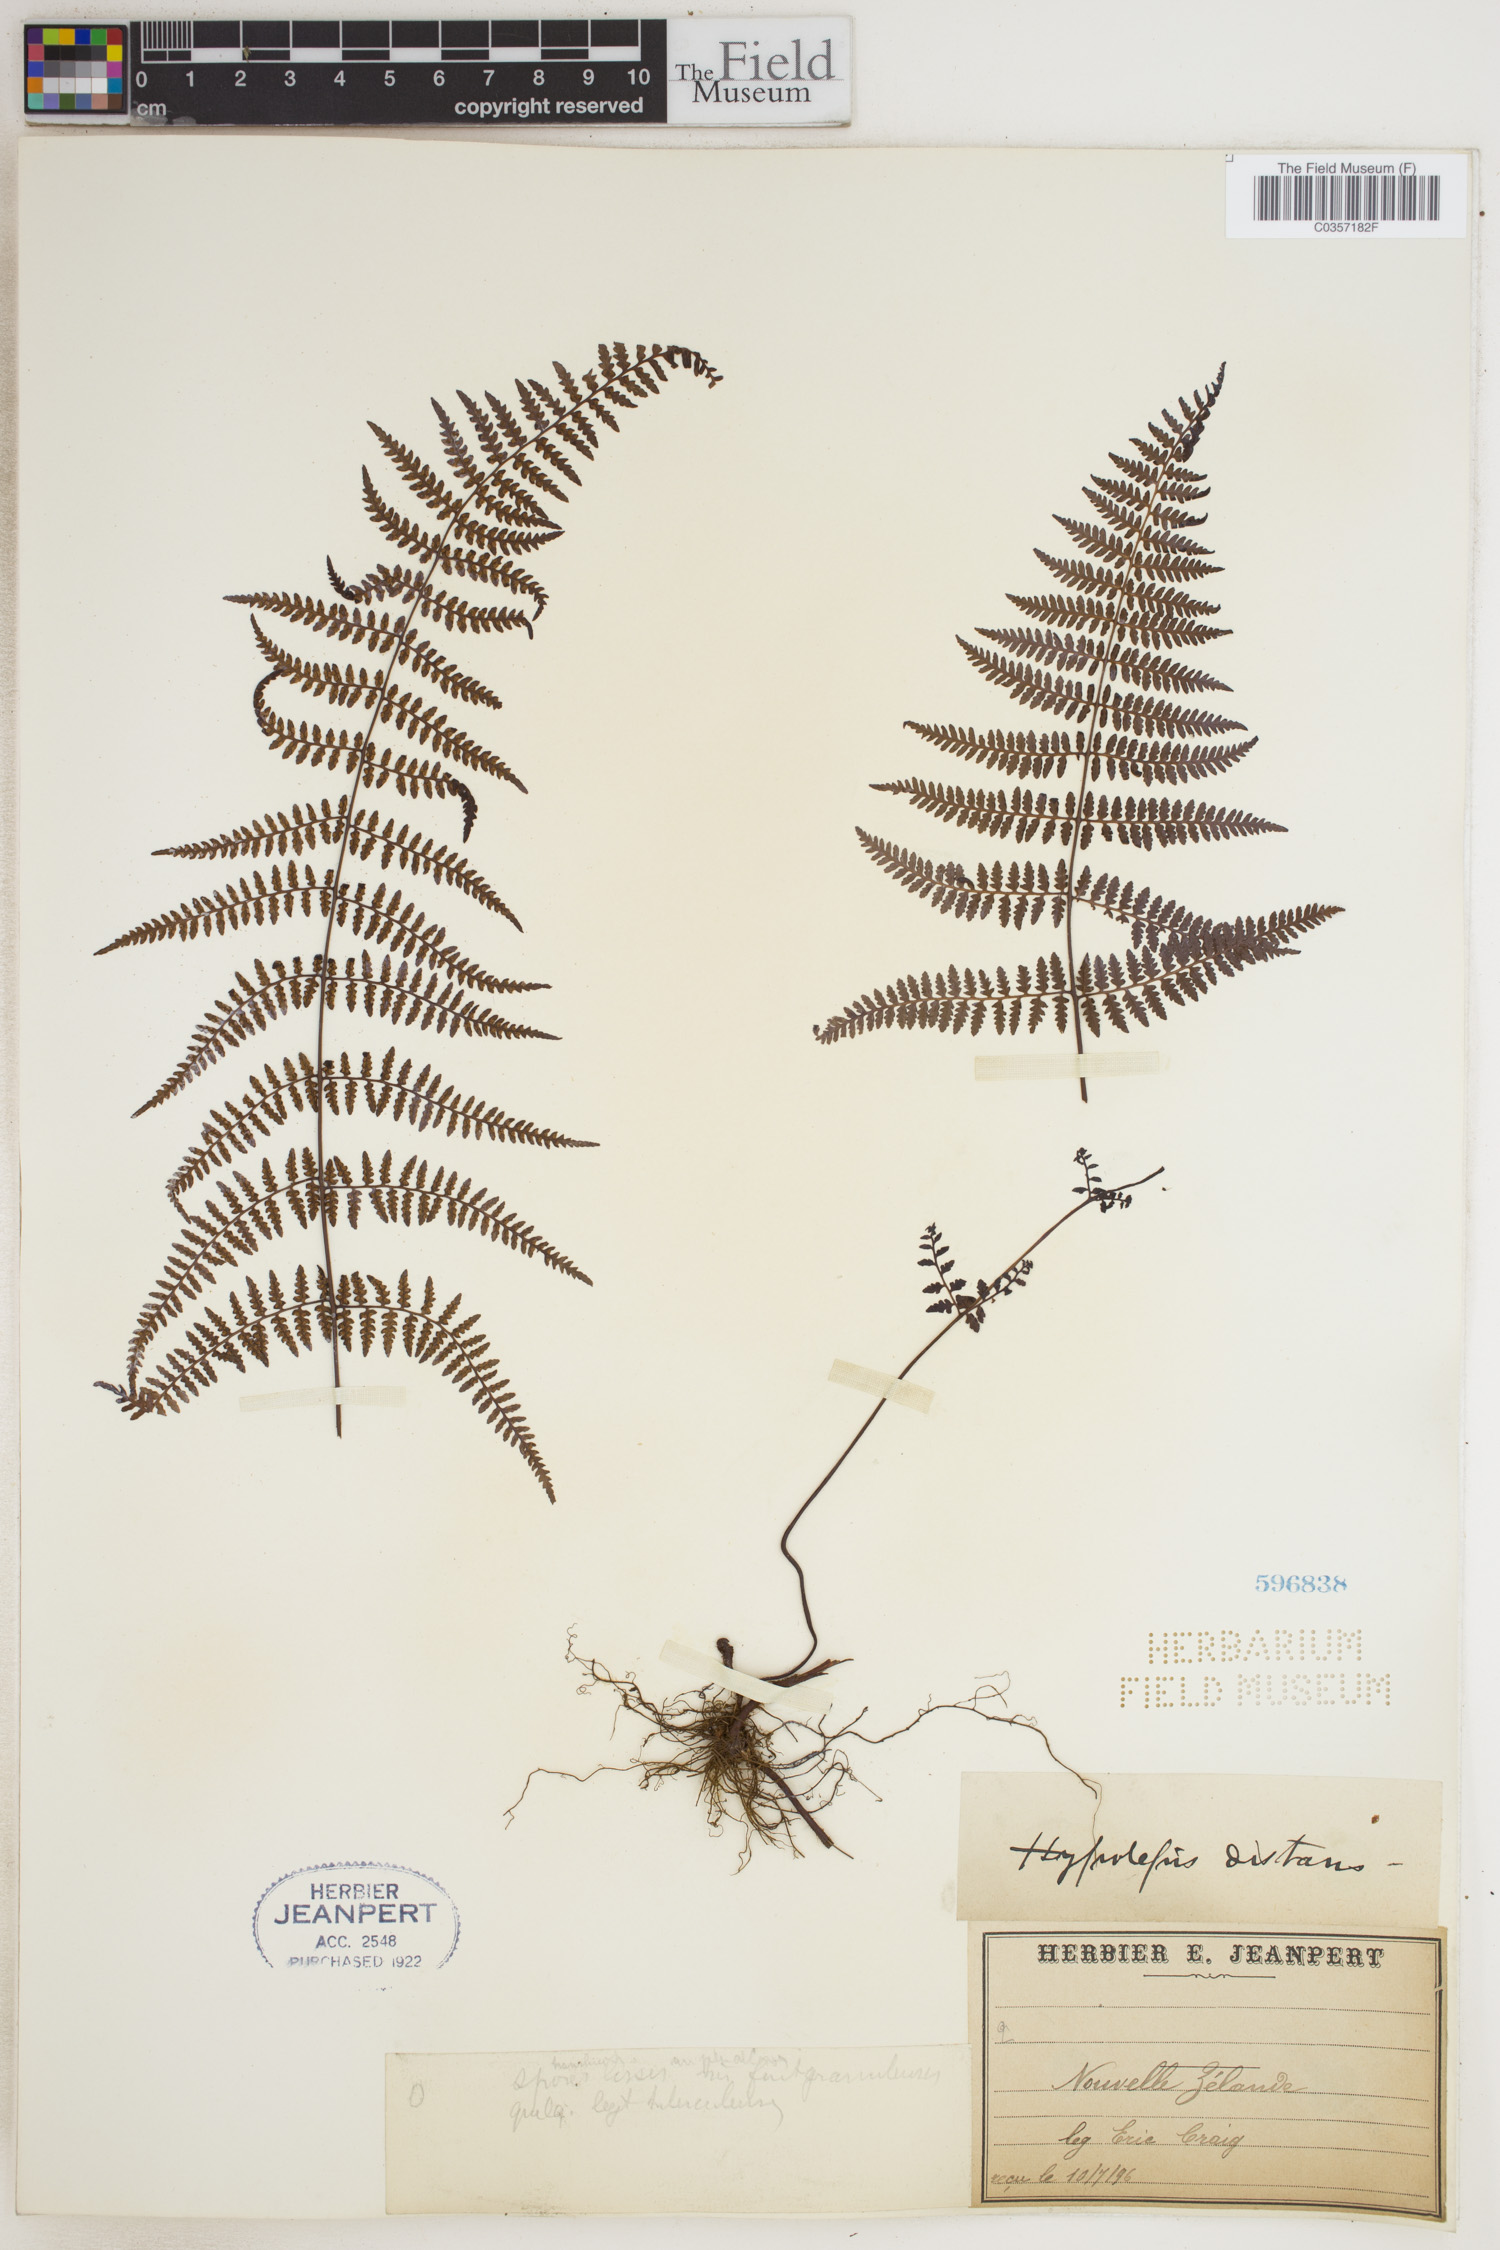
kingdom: Plantae
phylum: Tracheophyta
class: Polypodiopsida
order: Polypodiales
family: Dennstaedtiaceae
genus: Hiya
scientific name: Hiya distans
